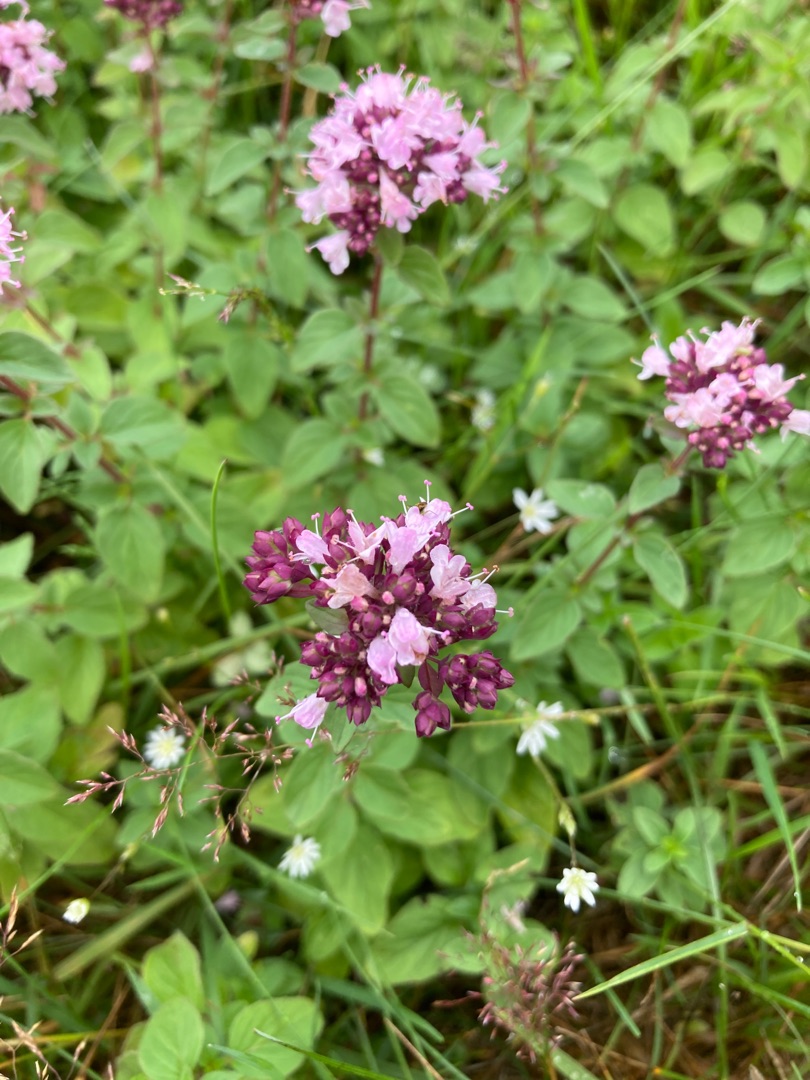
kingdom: Plantae
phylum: Tracheophyta
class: Magnoliopsida
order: Lamiales
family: Lamiaceae
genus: Origanum
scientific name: Origanum vulgare
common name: Merian
